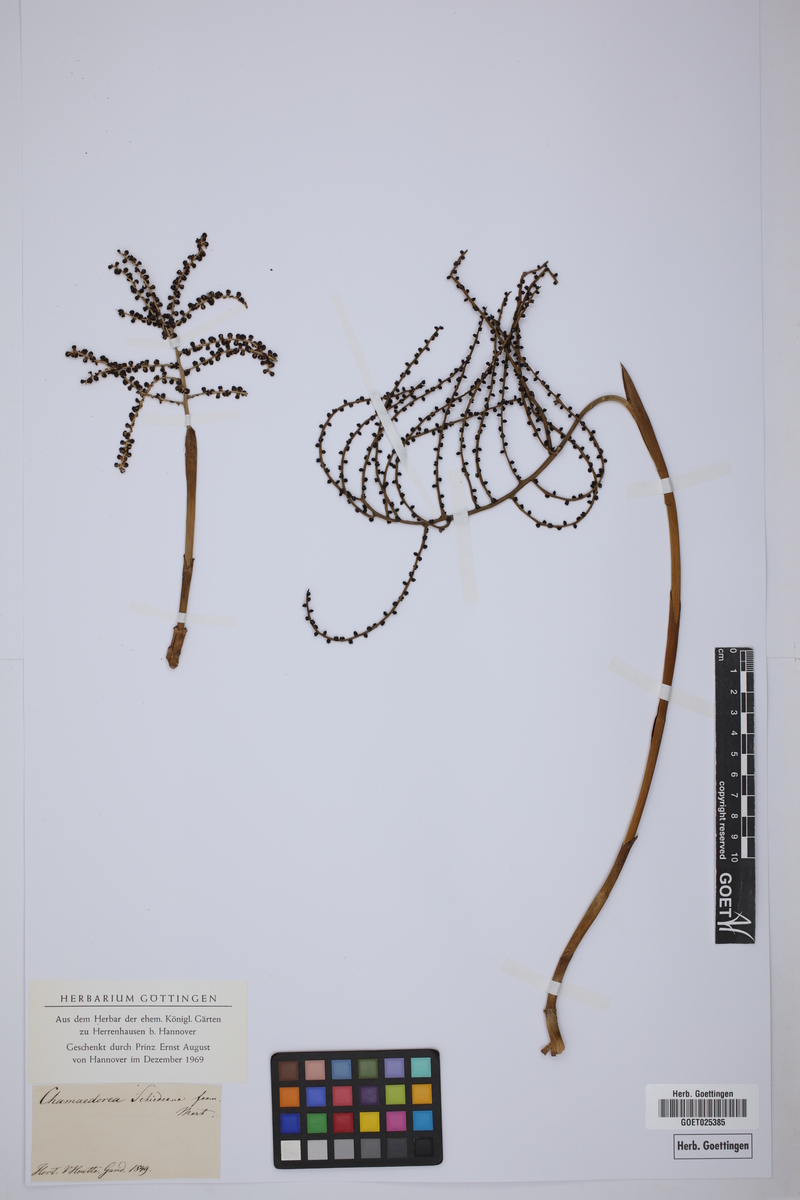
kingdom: Plantae
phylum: Tracheophyta
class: Liliopsida
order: Arecales
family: Arecaceae
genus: Chamaedorea
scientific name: Chamaedorea schiedeana
